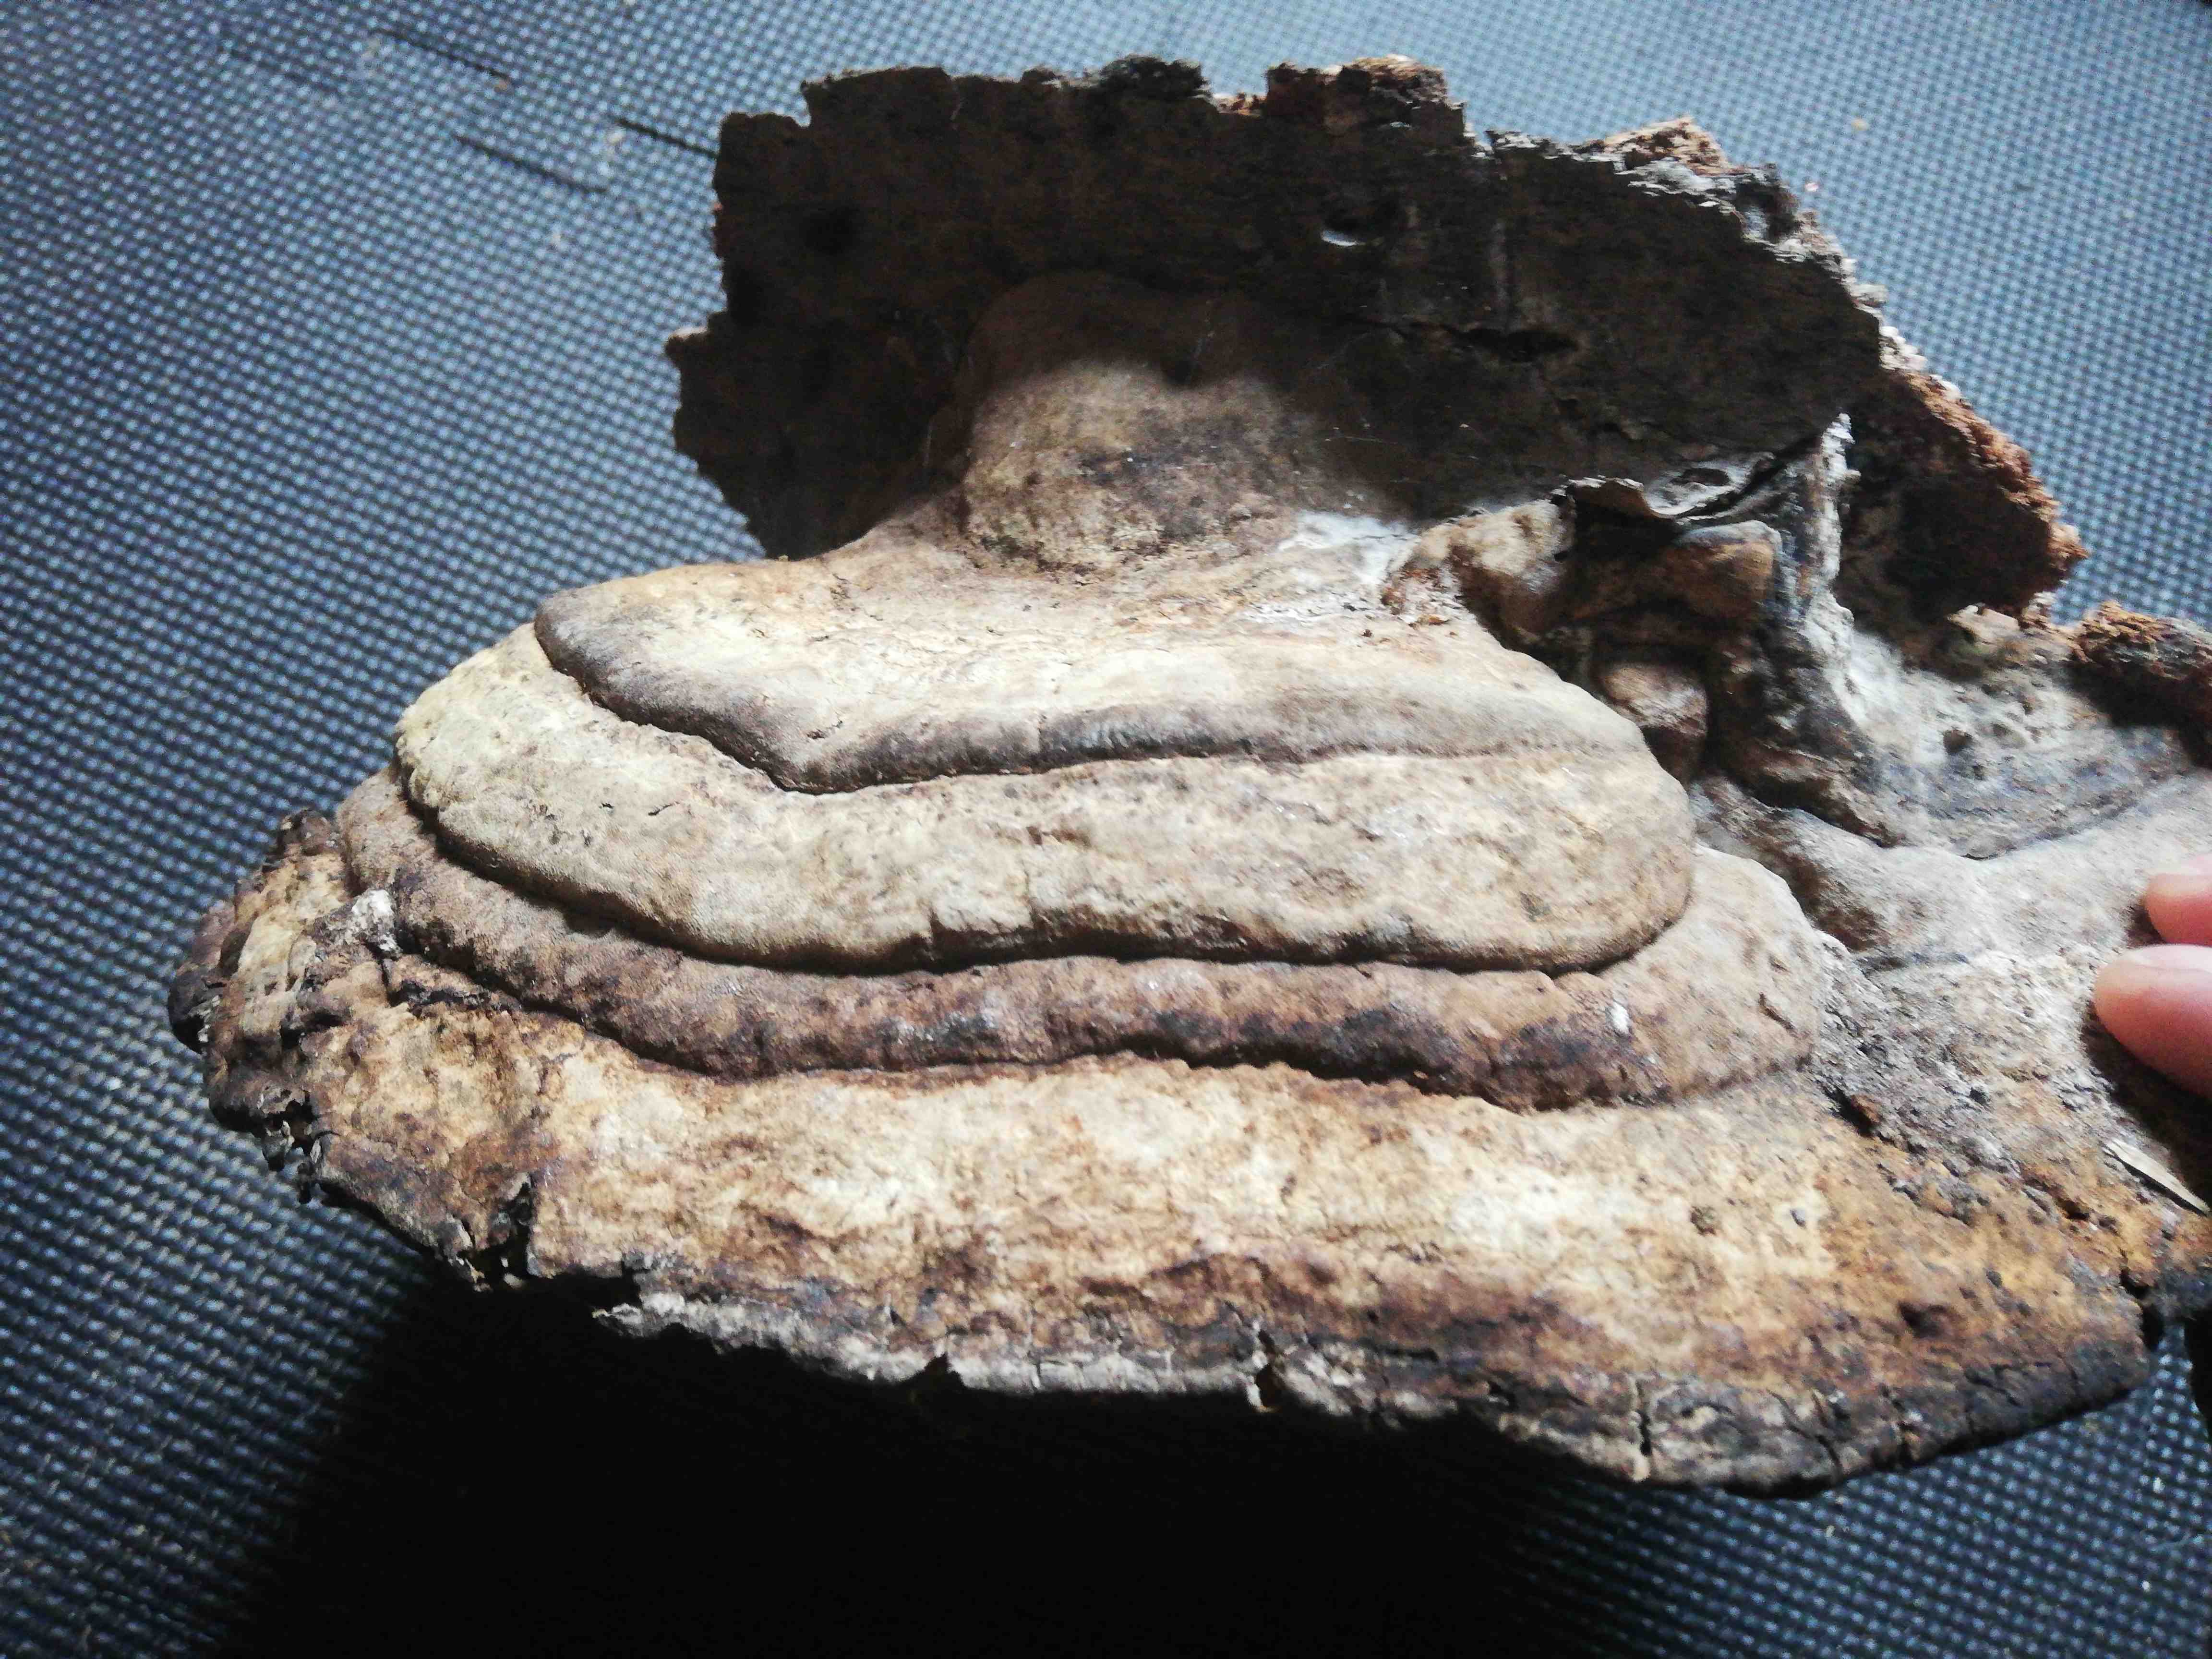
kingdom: Fungi
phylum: Basidiomycota
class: Agaricomycetes
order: Polyporales
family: Fomitopsidaceae
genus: Fomitopsis
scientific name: Fomitopsis pinicola
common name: randbæltet hovporesvamp
